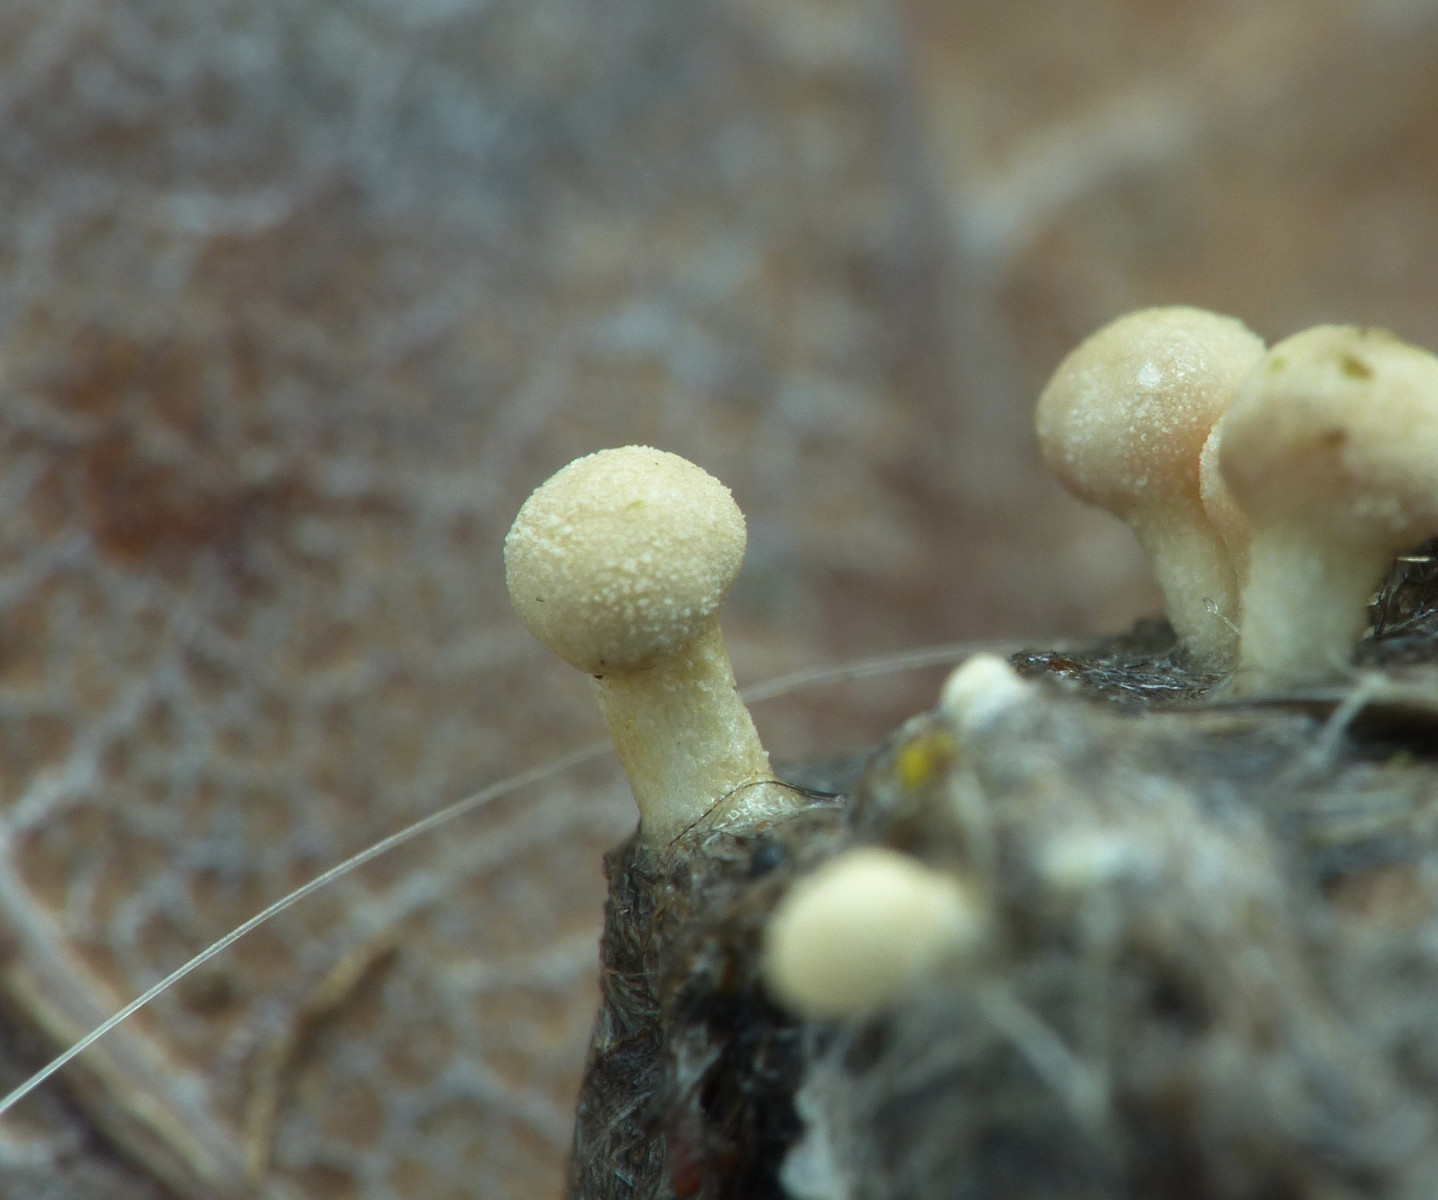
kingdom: Fungi
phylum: Ascomycota
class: Eurotiomycetes
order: Onygenales
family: Onygenaceae
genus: Onygena
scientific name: Onygena corvina
